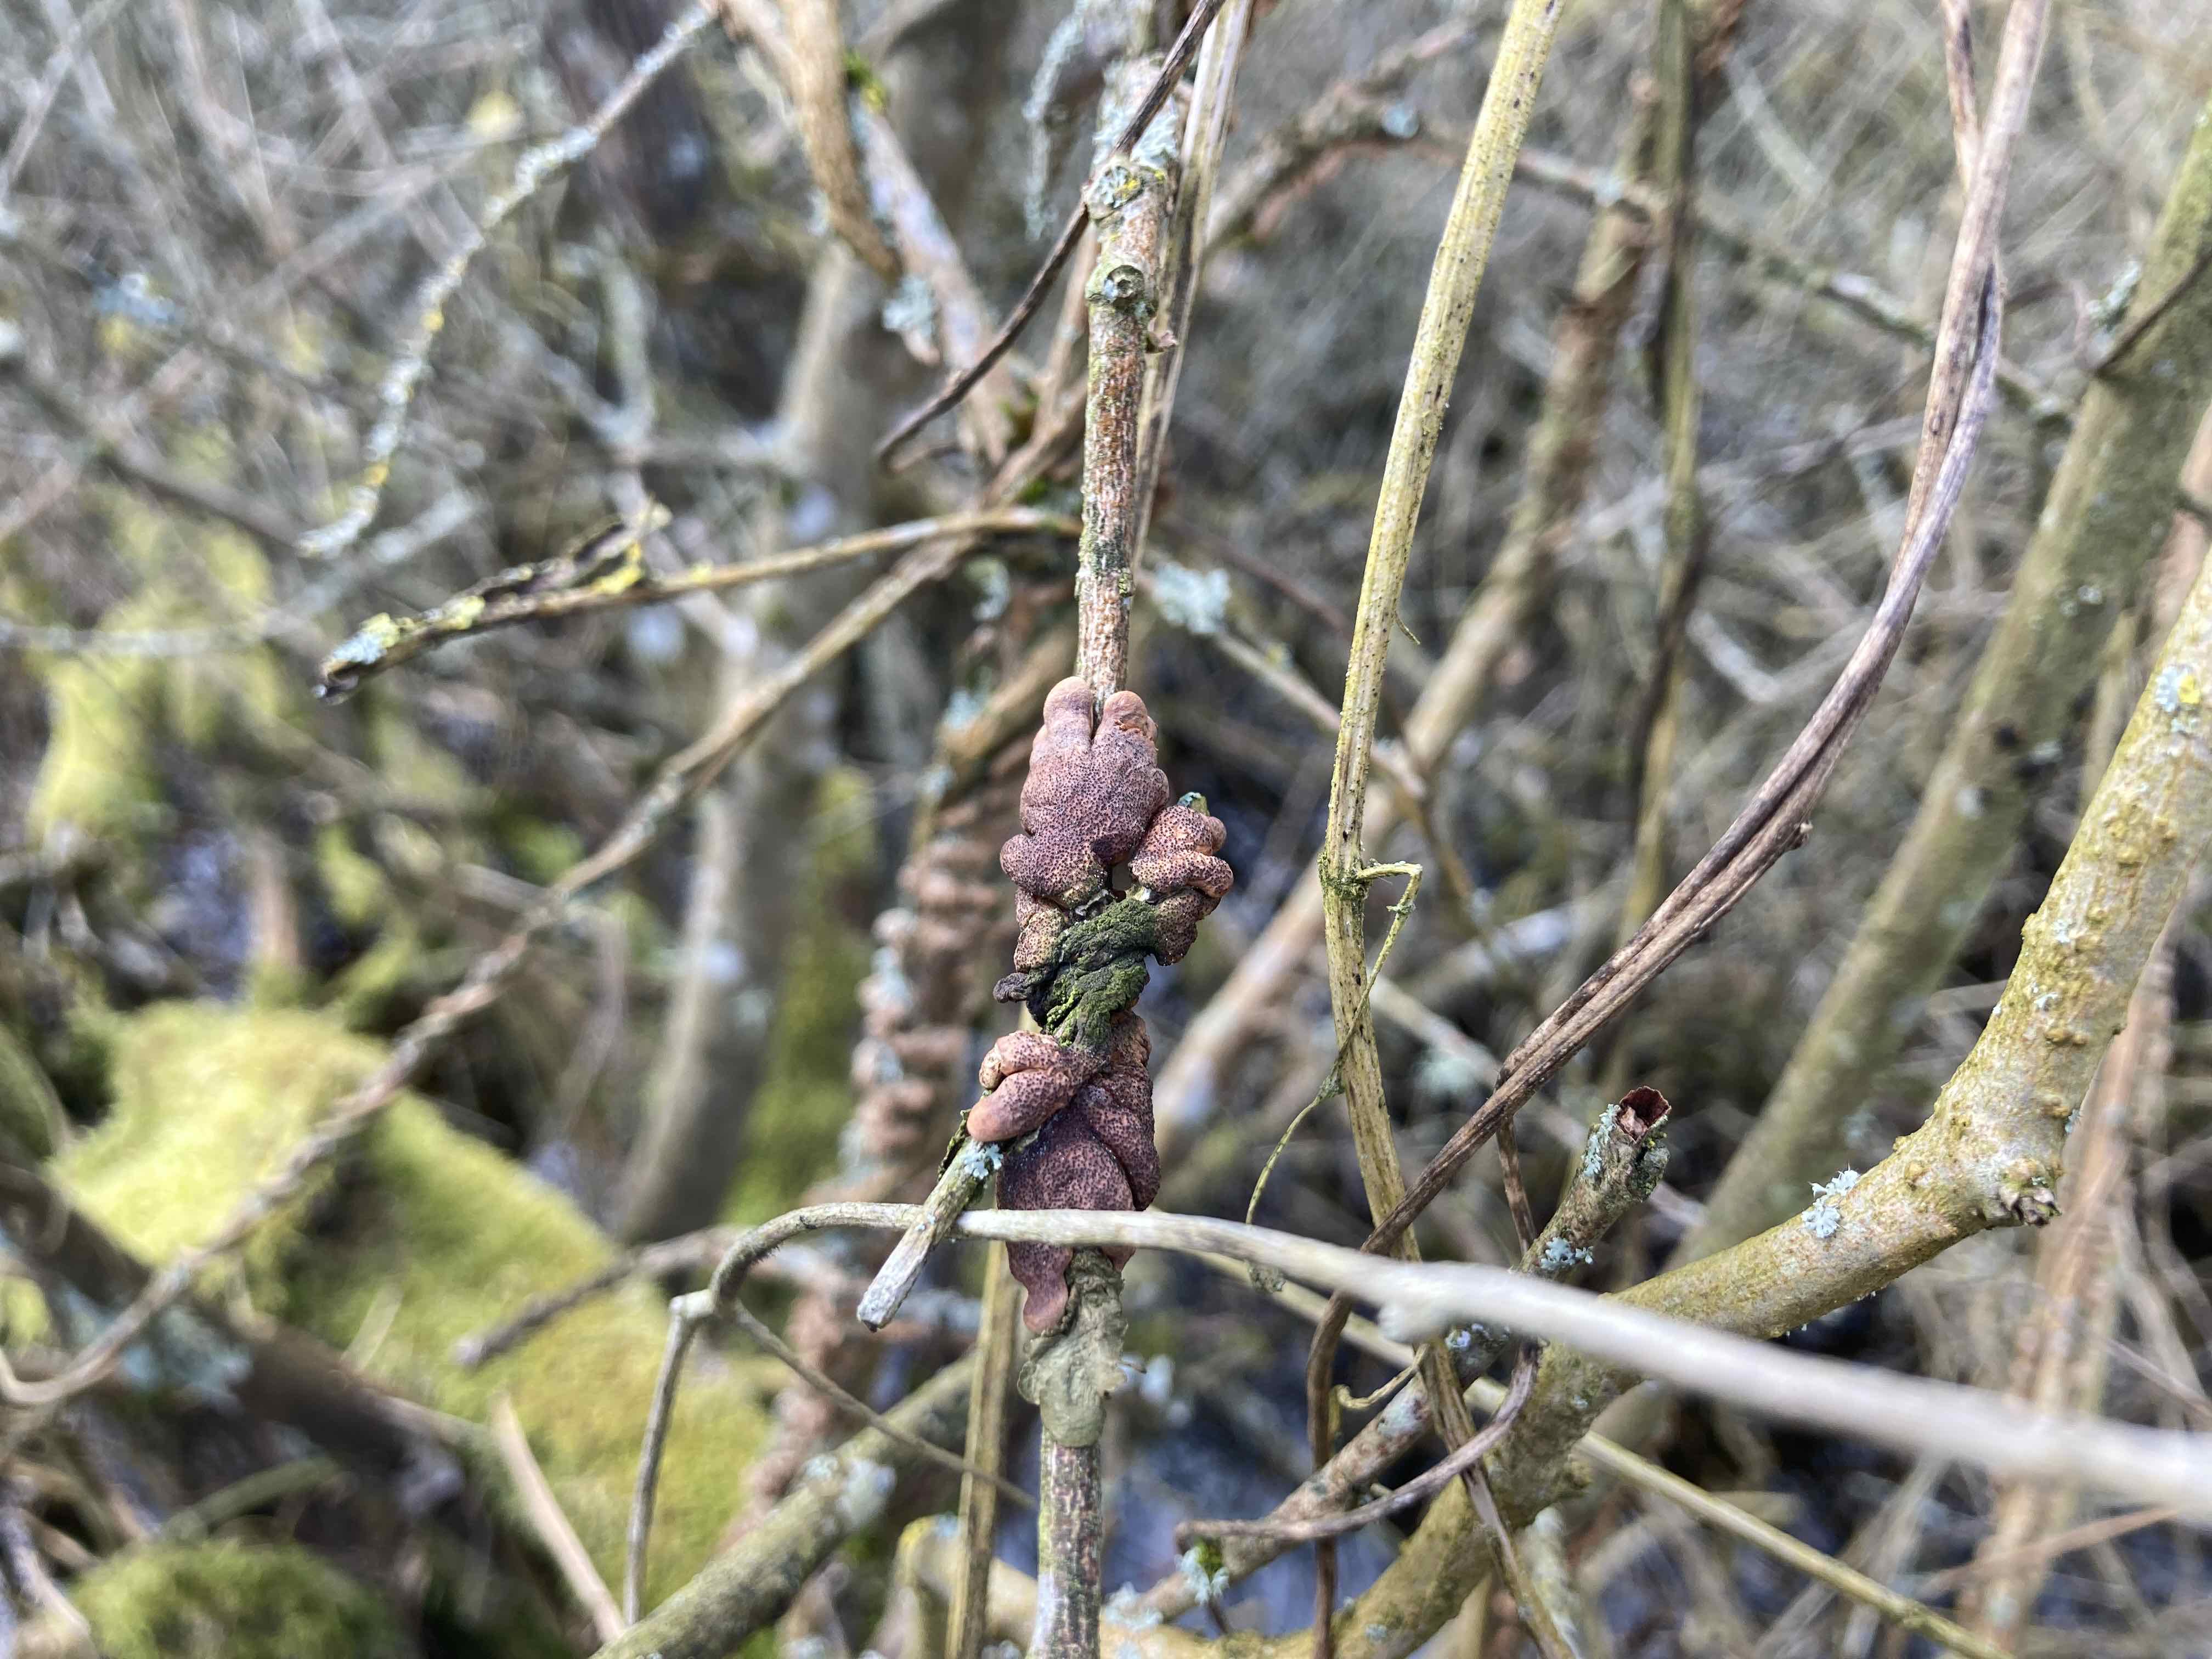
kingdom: Fungi
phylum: Ascomycota
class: Sordariomycetes
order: Hypocreales
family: Hypocreaceae
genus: Hypocreopsis
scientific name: Hypocreopsis lichenoides
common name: pilfinger
